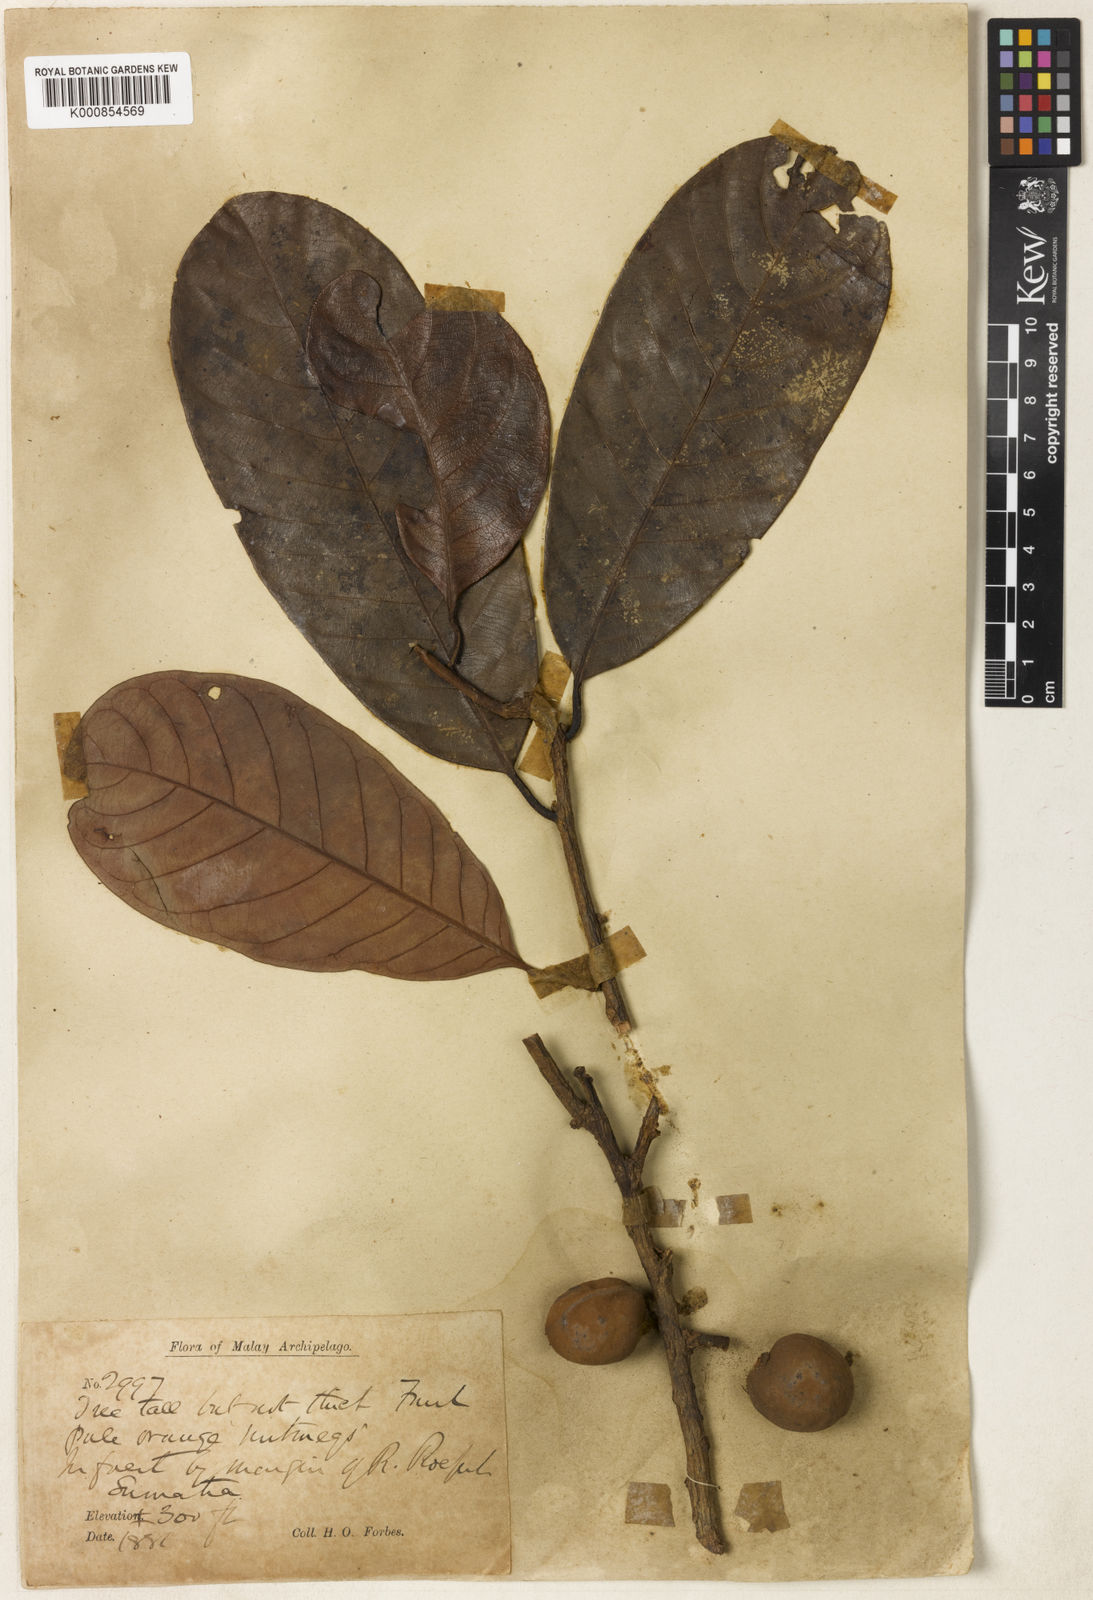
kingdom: Plantae
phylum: Tracheophyta
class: Magnoliopsida
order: Magnoliales
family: Myristicaceae
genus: Knema
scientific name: Knema latifolia
